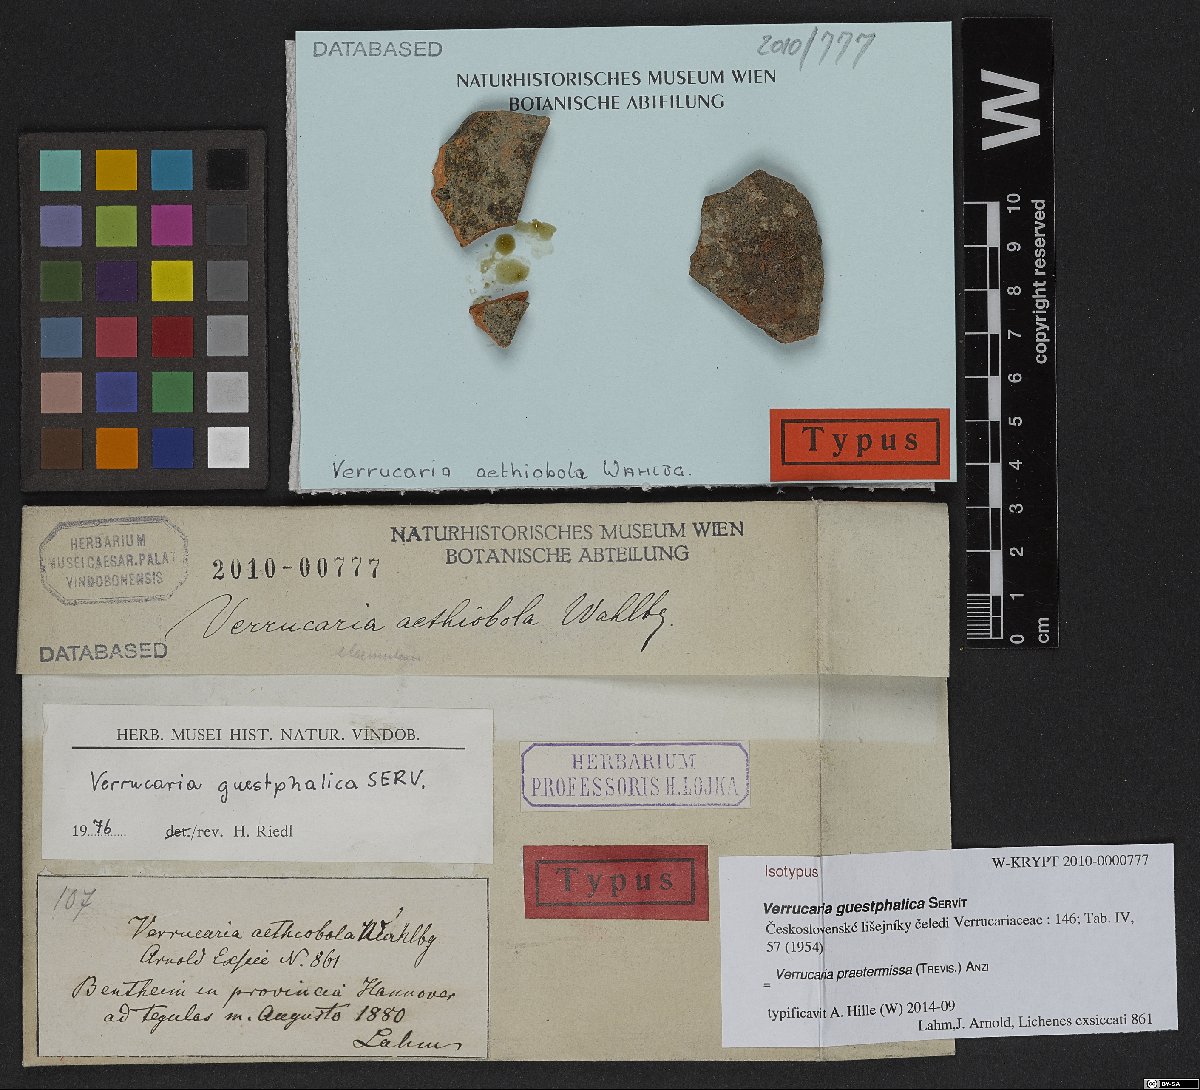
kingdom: Fungi
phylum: Ascomycota
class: Eurotiomycetes
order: Verrucariales
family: Verrucariaceae
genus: Verrucaria
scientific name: Verrucaria
